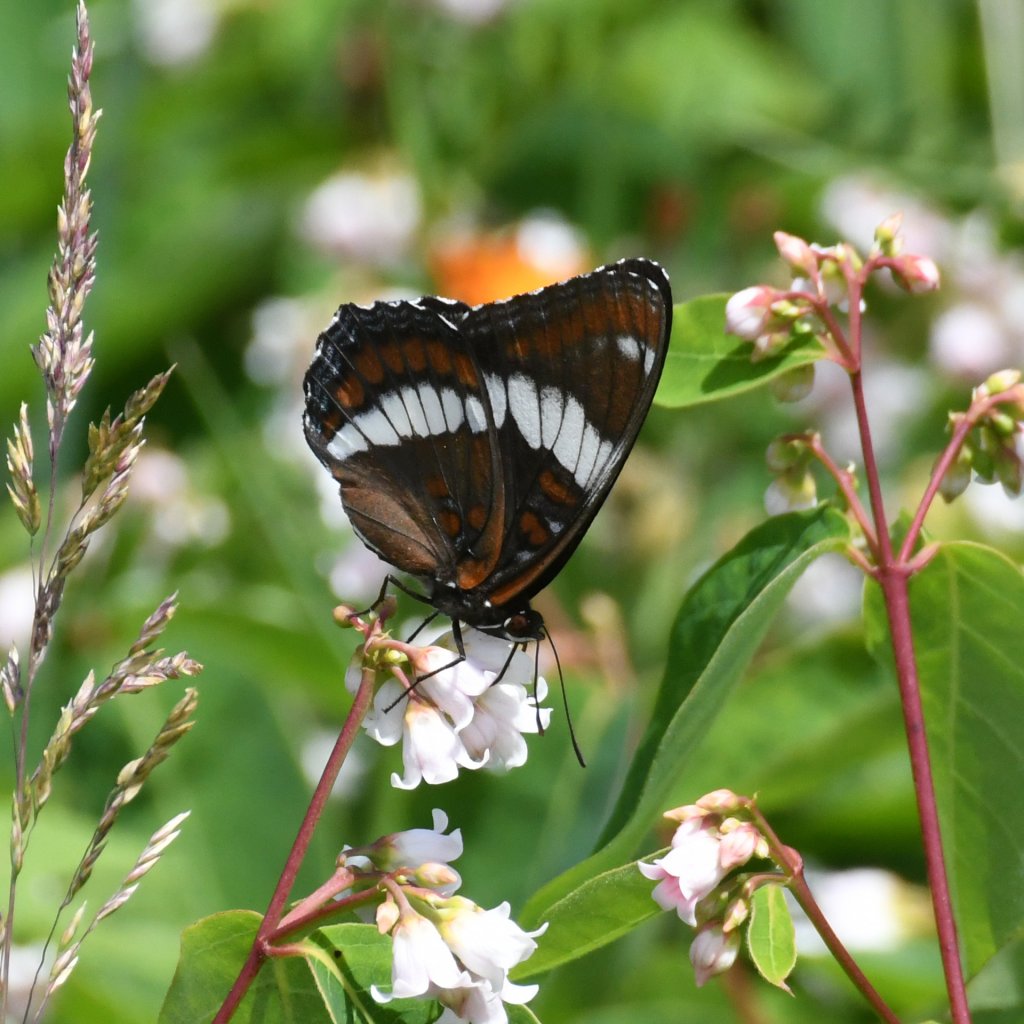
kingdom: Animalia
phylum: Arthropoda
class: Insecta
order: Lepidoptera
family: Nymphalidae
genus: Limenitis
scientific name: Limenitis arthemis
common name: Red-spotted Admiral
